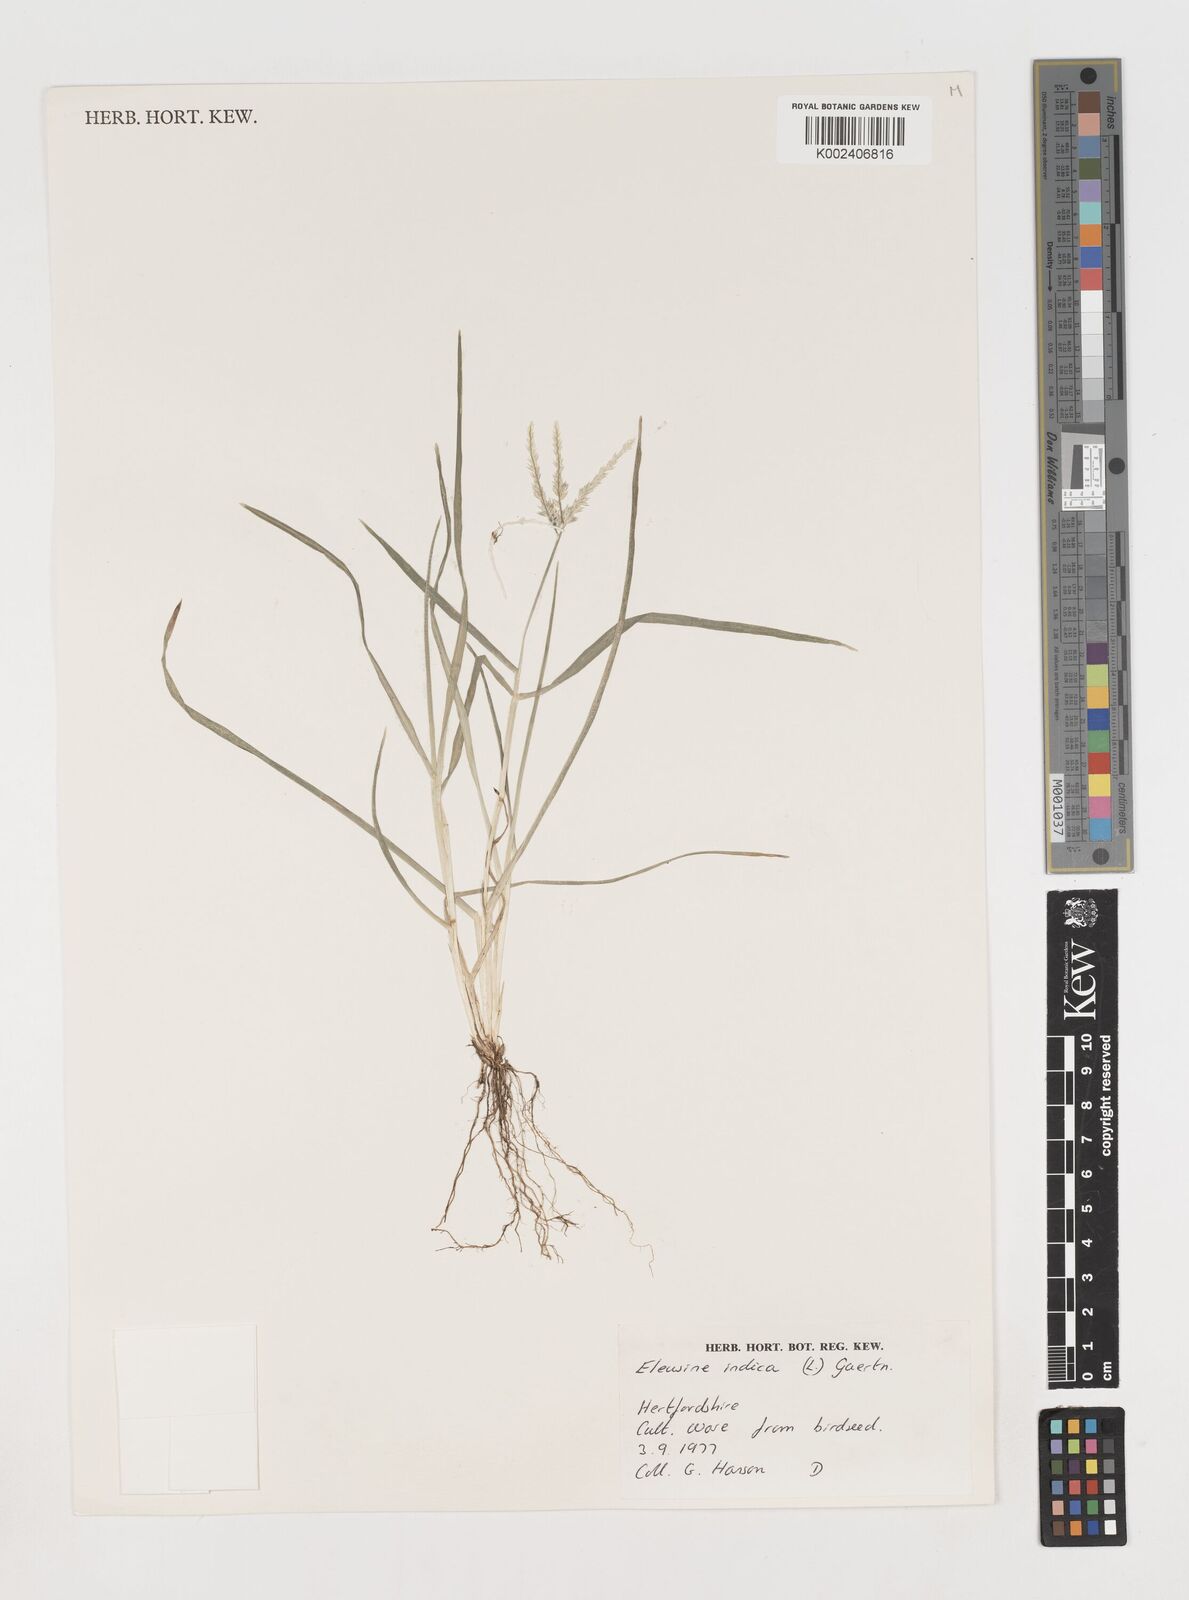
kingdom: Plantae
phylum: Tracheophyta
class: Liliopsida
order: Poales
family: Poaceae
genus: Eleusine
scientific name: Eleusine indica
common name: Yard-grass
